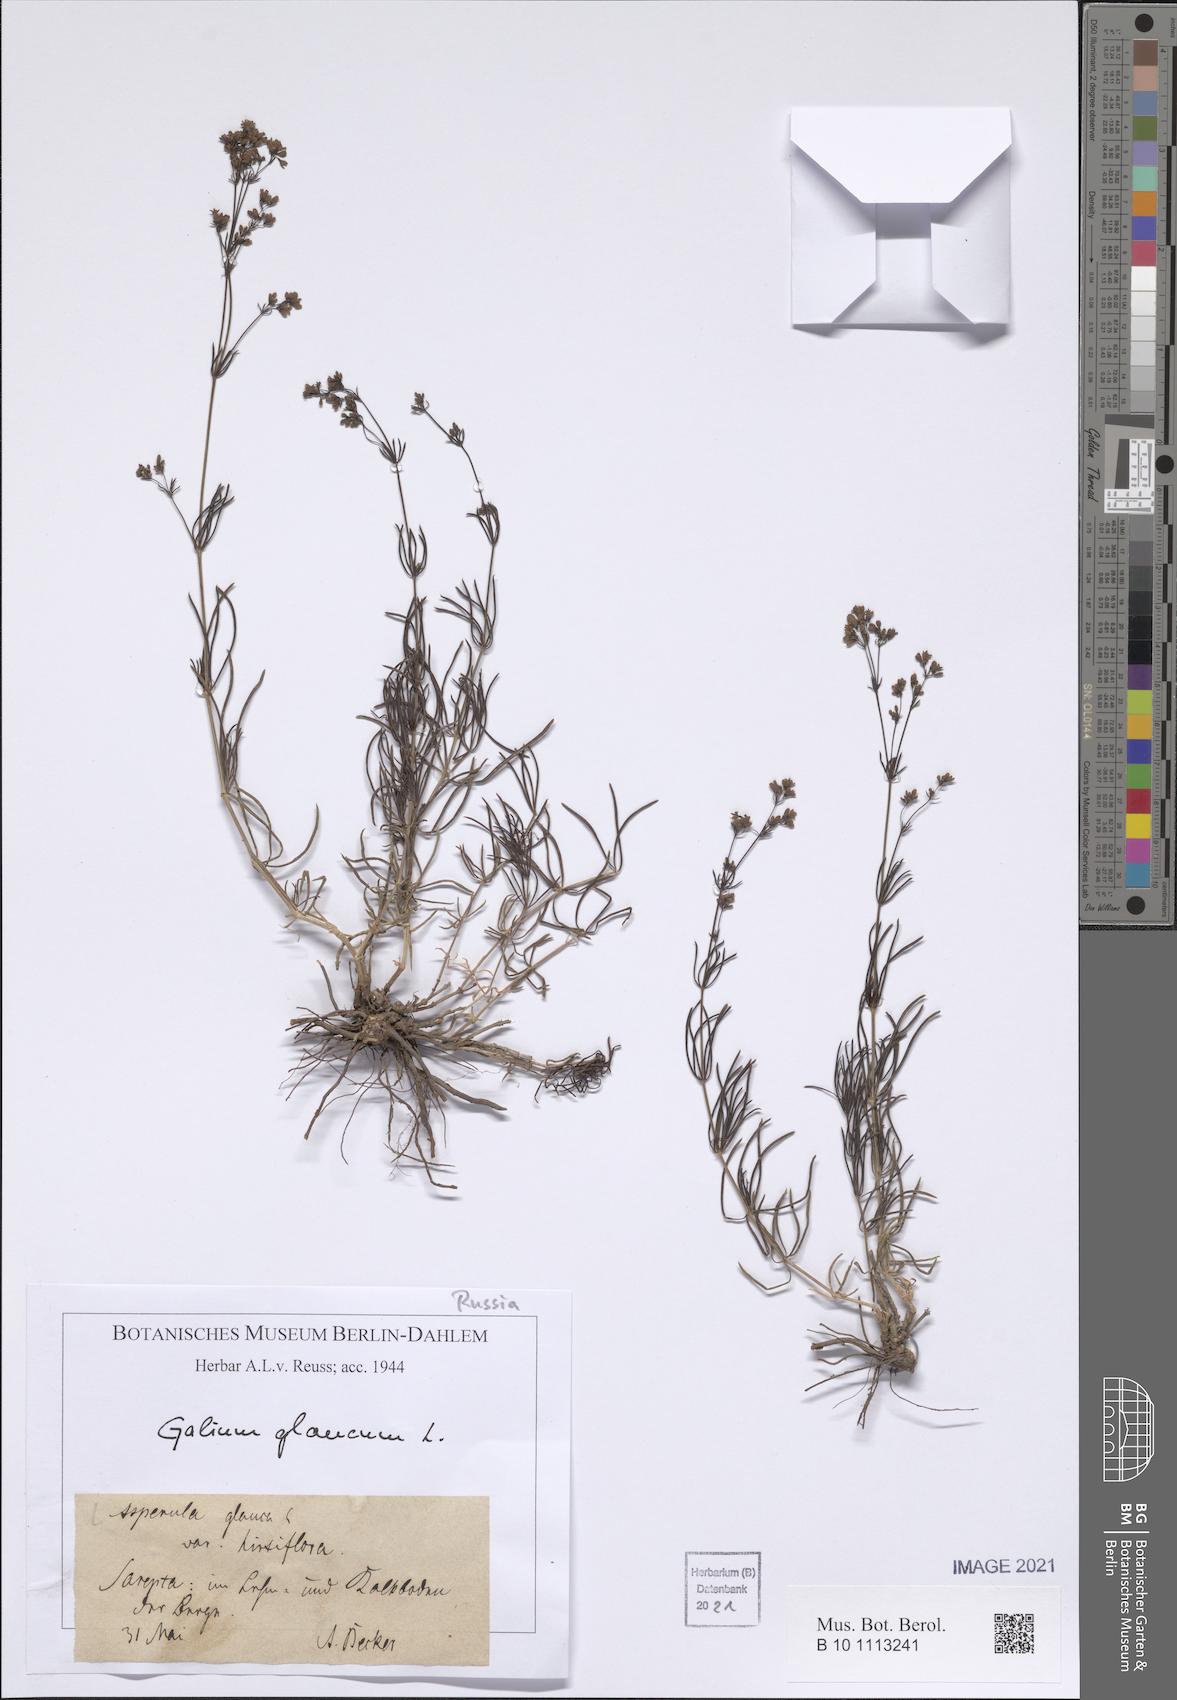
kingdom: Plantae
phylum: Tracheophyta
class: Magnoliopsida
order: Gentianales
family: Rubiaceae
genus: Galium
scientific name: Galium glaucum
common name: Waxy bedstraw
